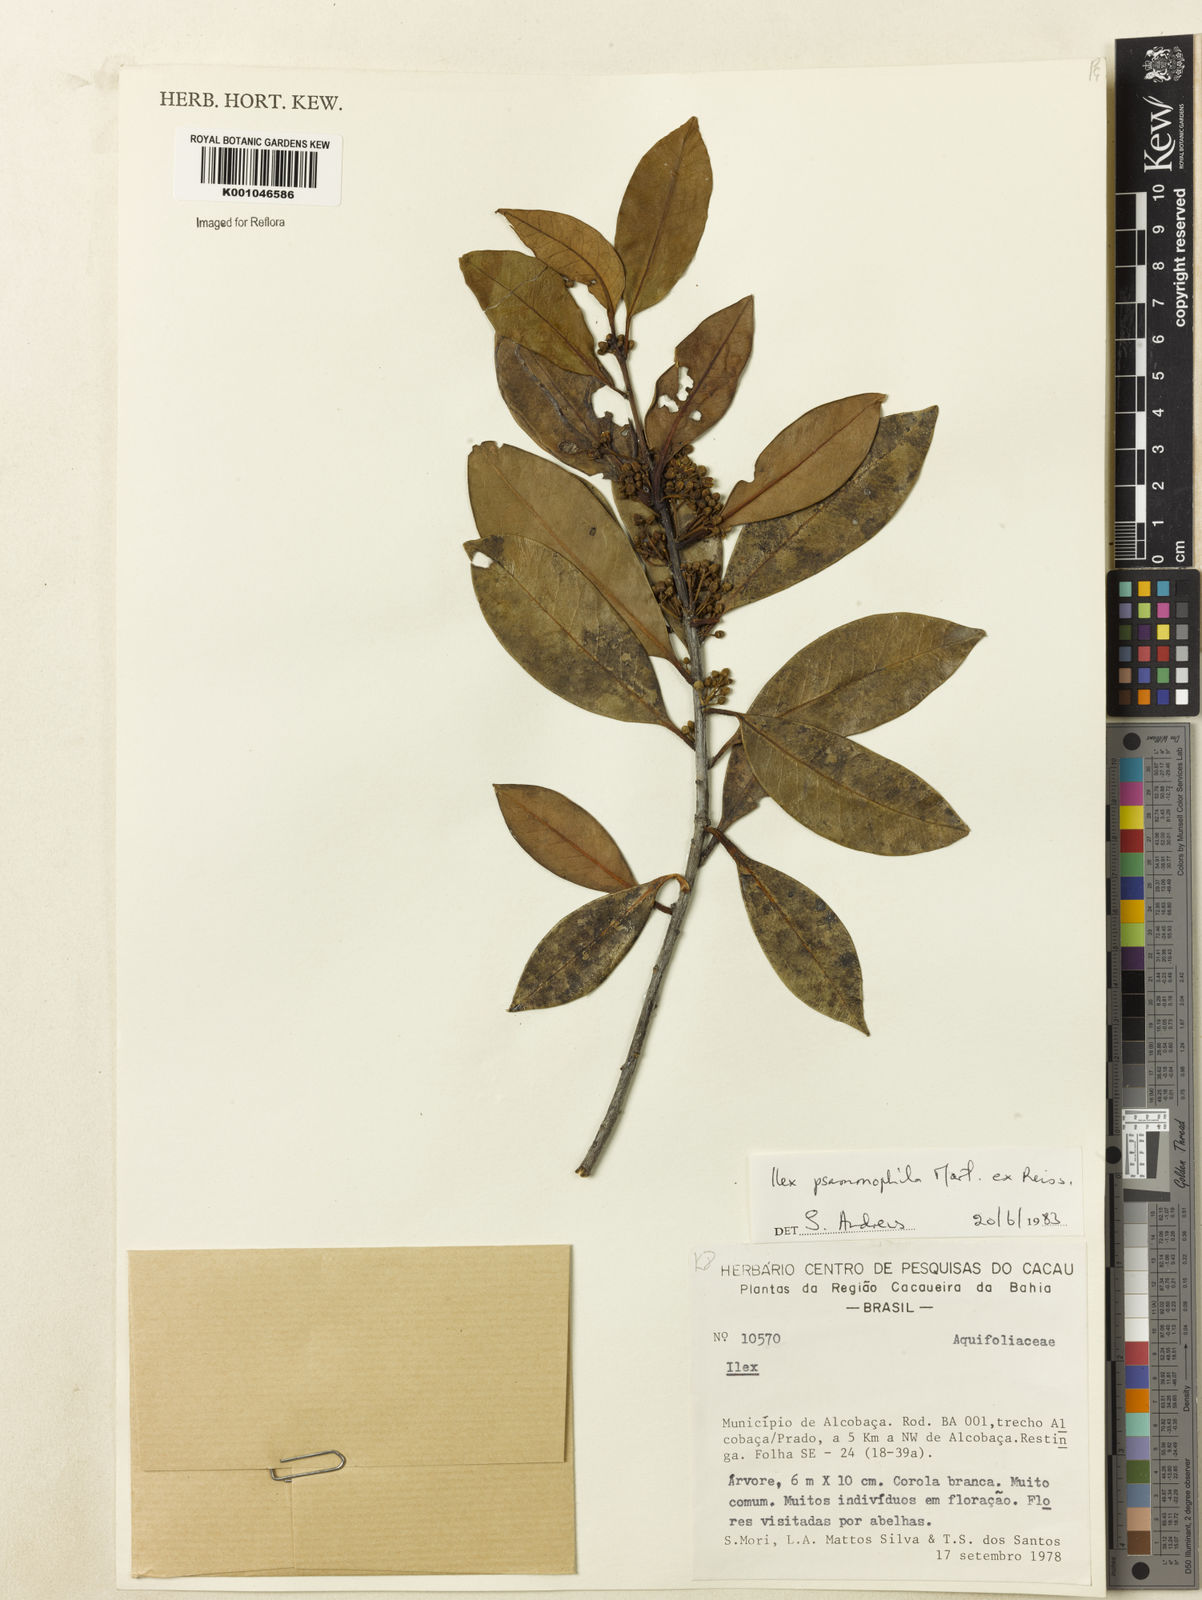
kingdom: Plantae
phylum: Tracheophyta
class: Magnoliopsida
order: Aquifoliales
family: Aquifoliaceae
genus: Ilex
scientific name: Ilex psammophila
